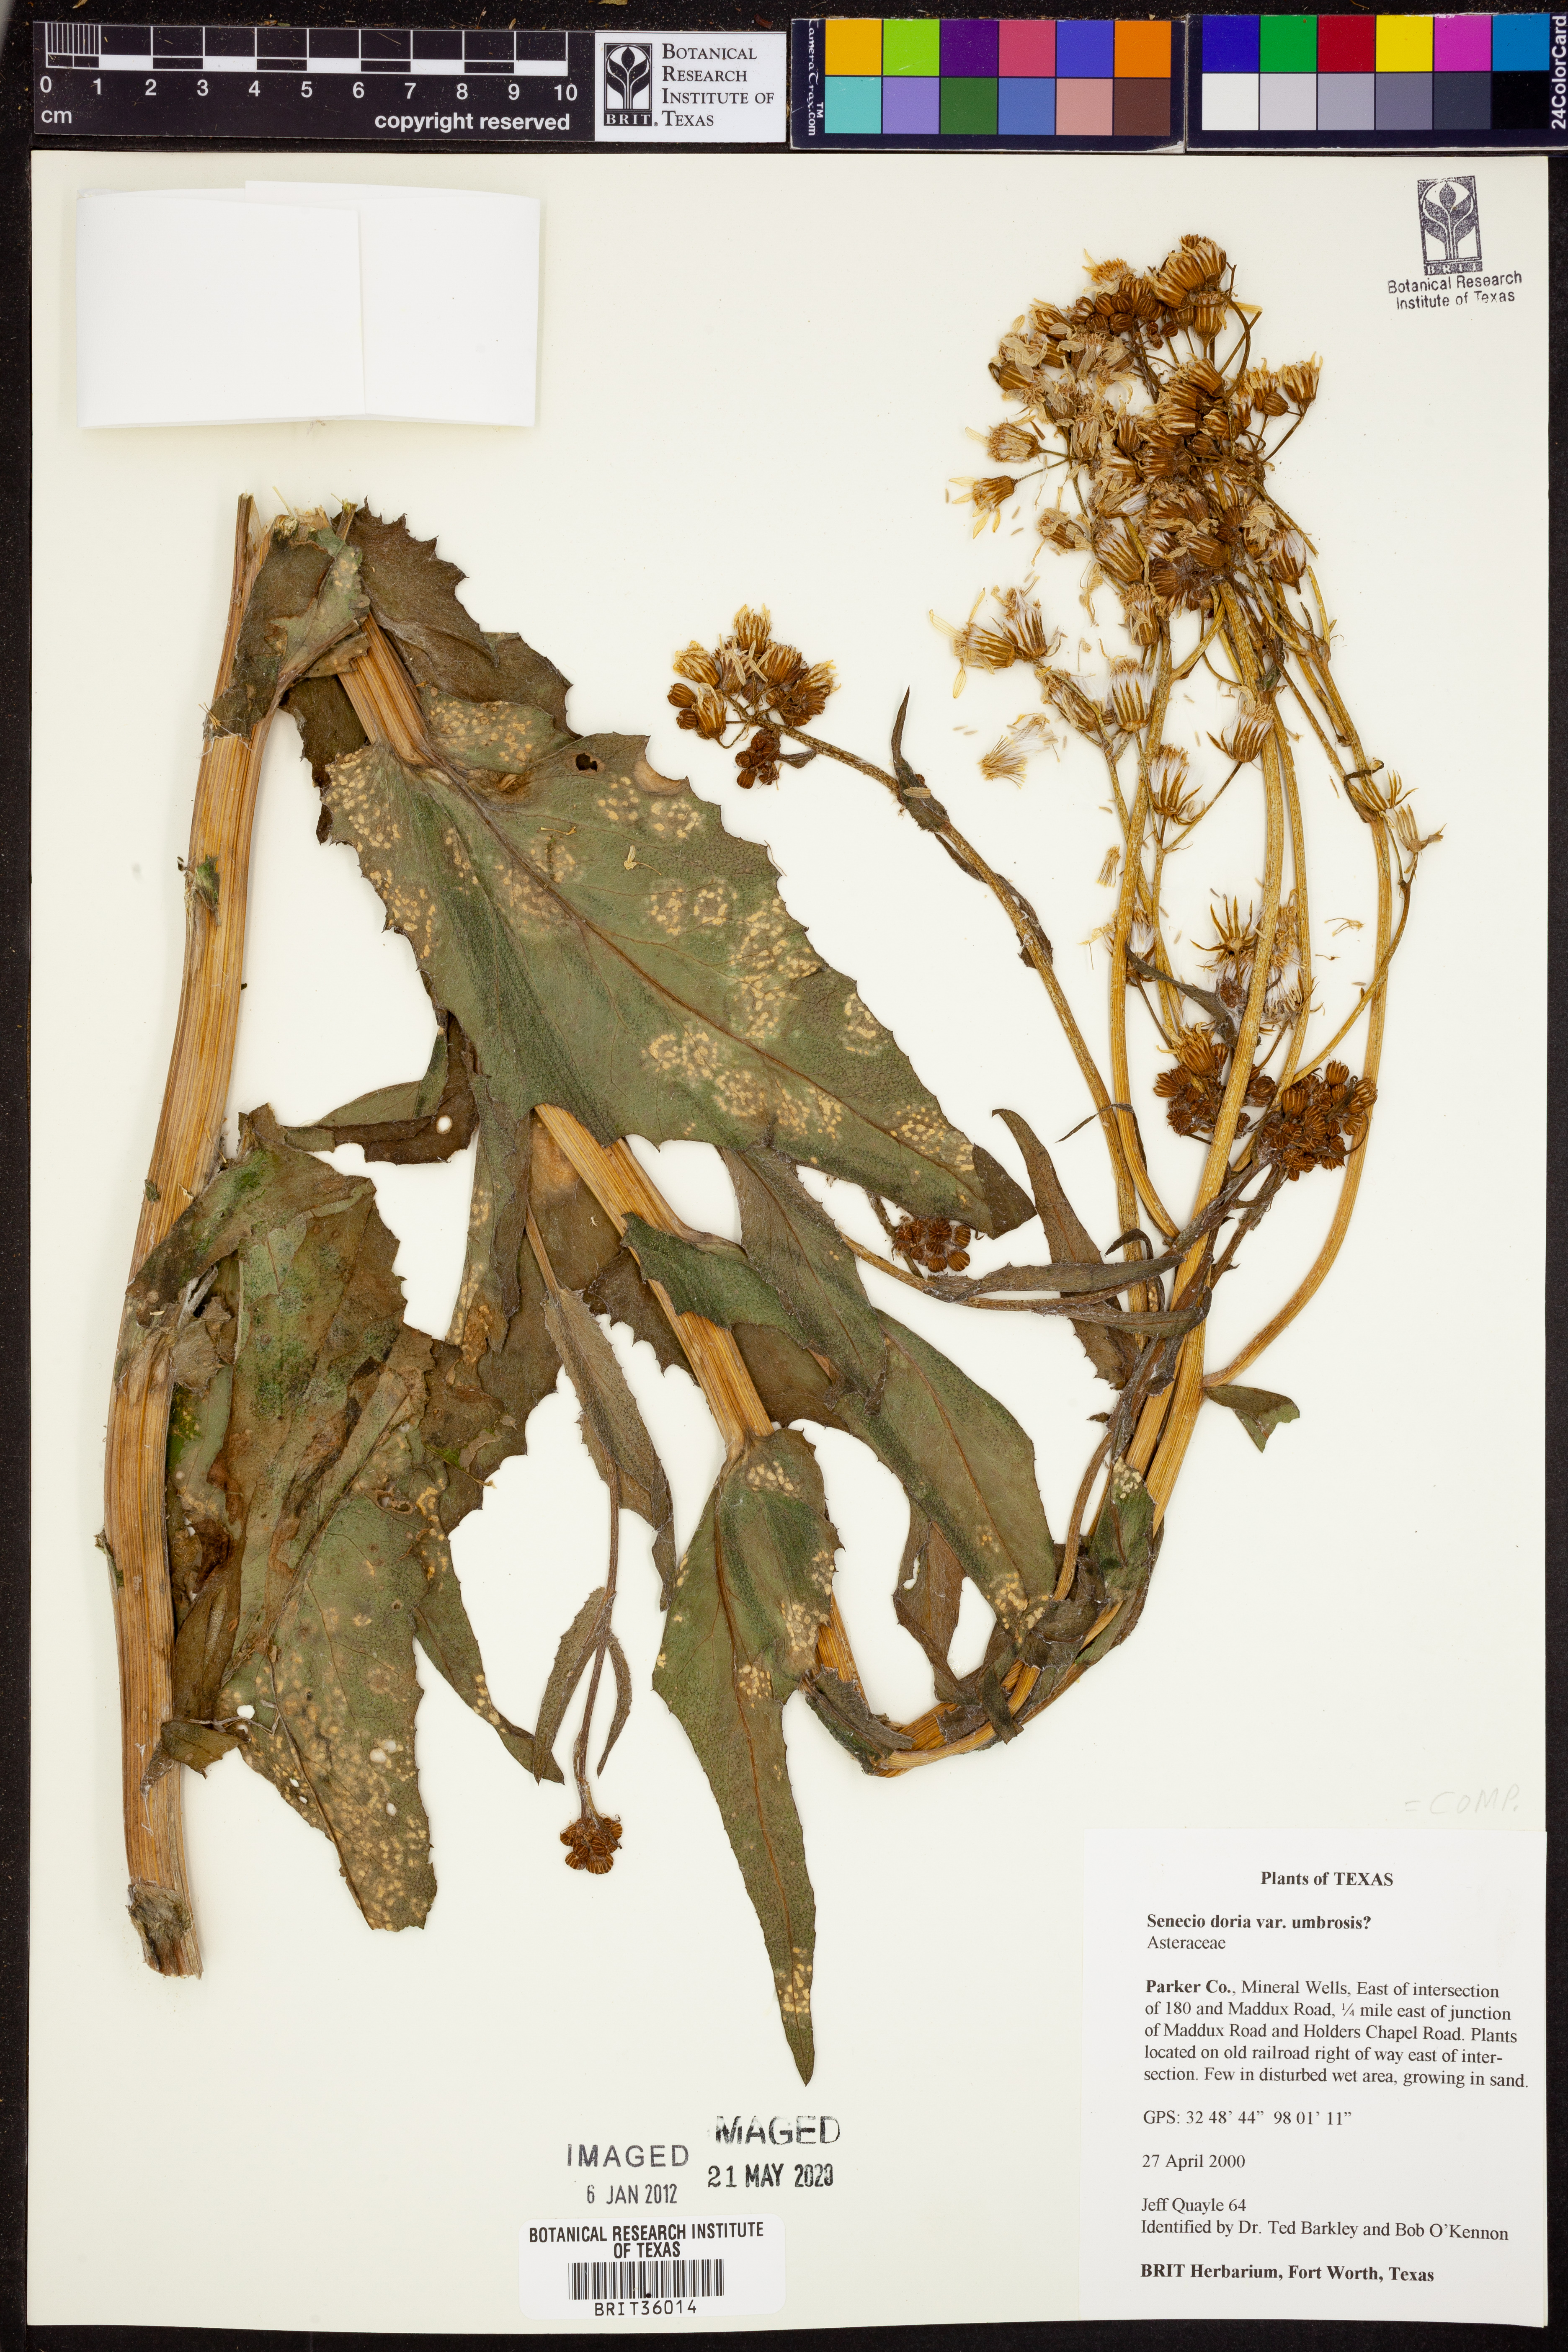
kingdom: Plantae
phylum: Tracheophyta
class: Magnoliopsida
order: Asterales
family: Asteraceae
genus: Senecio
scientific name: Senecio doria
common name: Golden ragwort
